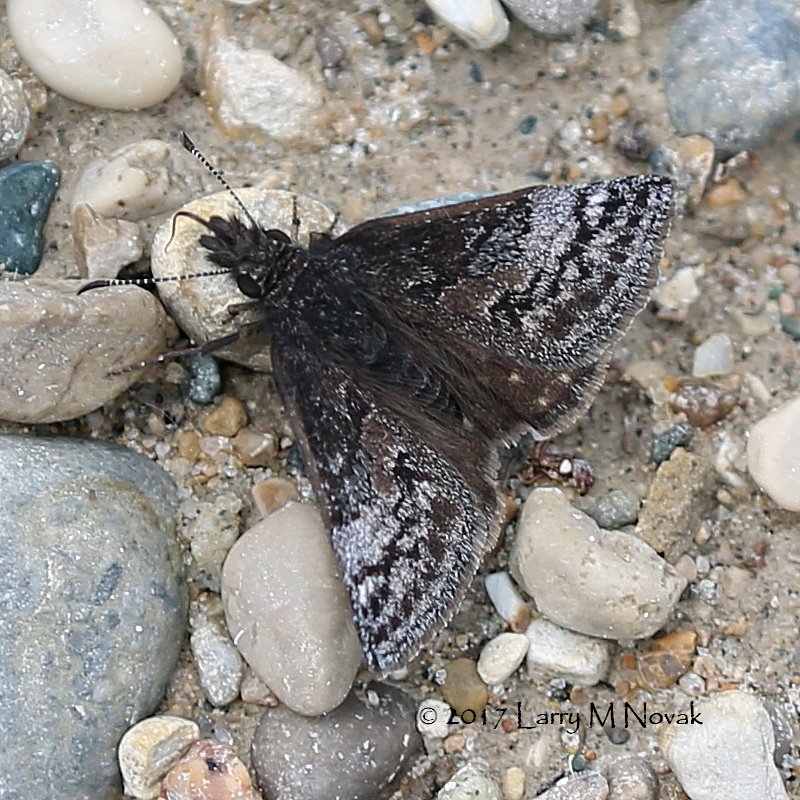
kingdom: Animalia
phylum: Arthropoda
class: Insecta
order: Lepidoptera
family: Hesperiidae
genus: Erynnis
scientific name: Erynnis icelus
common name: Dreamy Duskywing
